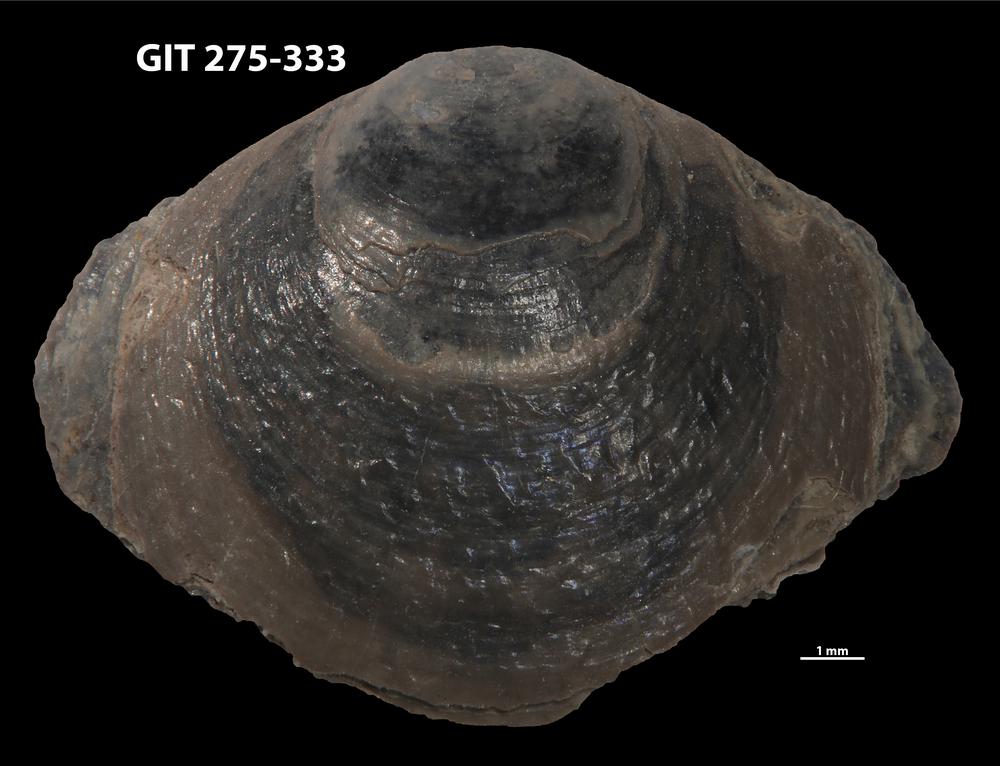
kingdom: Animalia
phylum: Brachiopoda
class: Lingulata
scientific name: Lingulata
